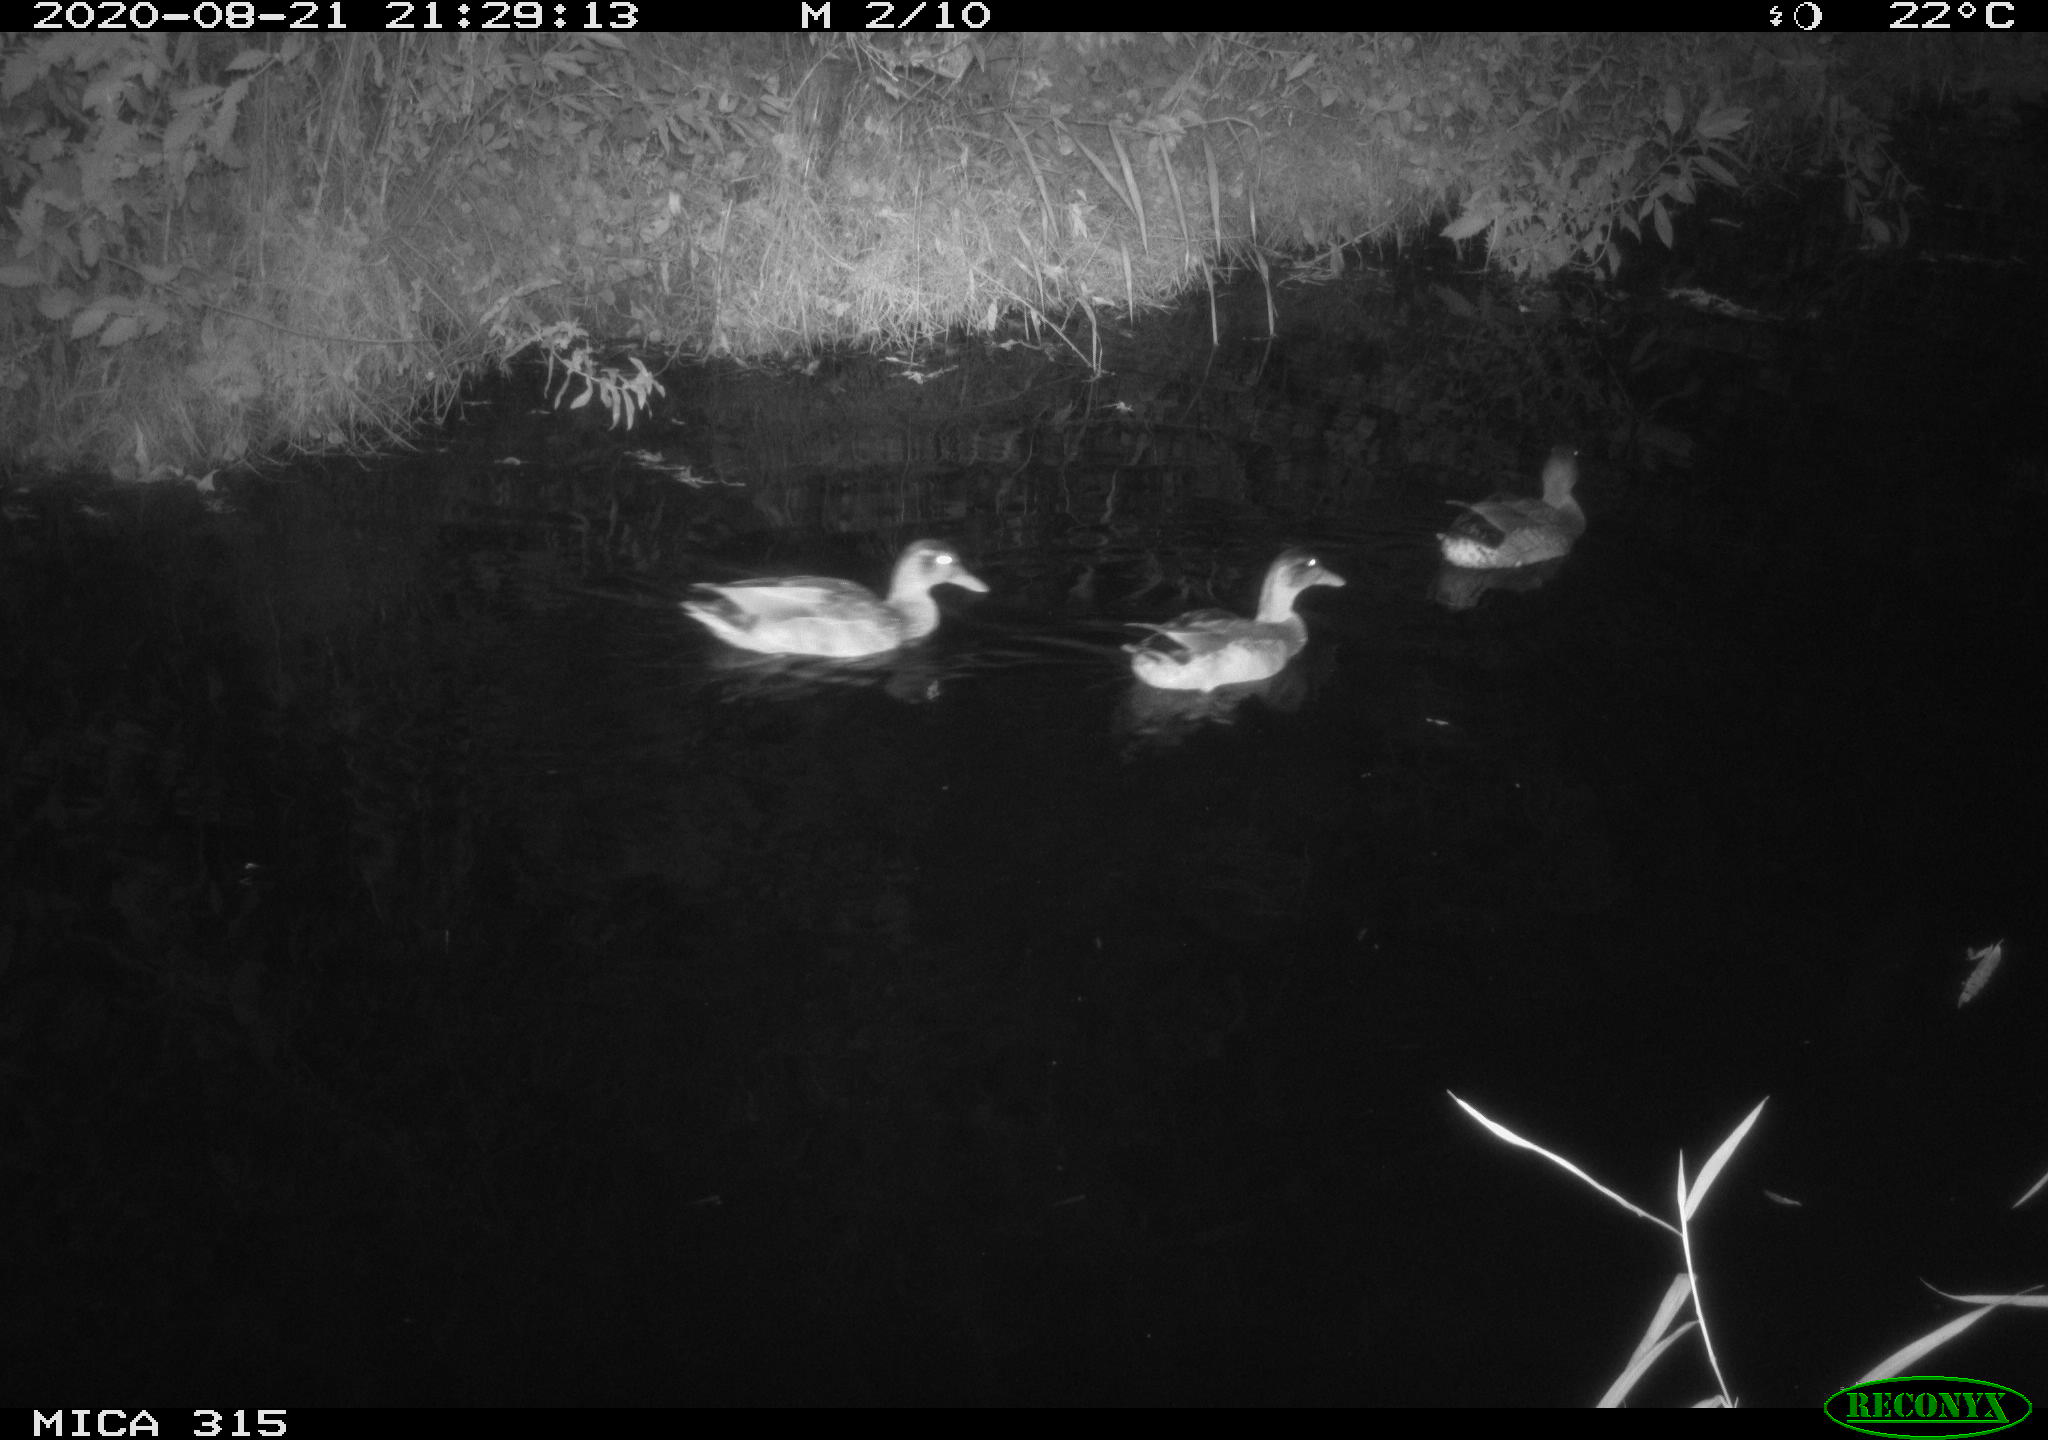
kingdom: Animalia
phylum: Chordata
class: Aves
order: Anseriformes
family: Anatidae
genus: Anas
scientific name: Anas platyrhynchos
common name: Mallard
